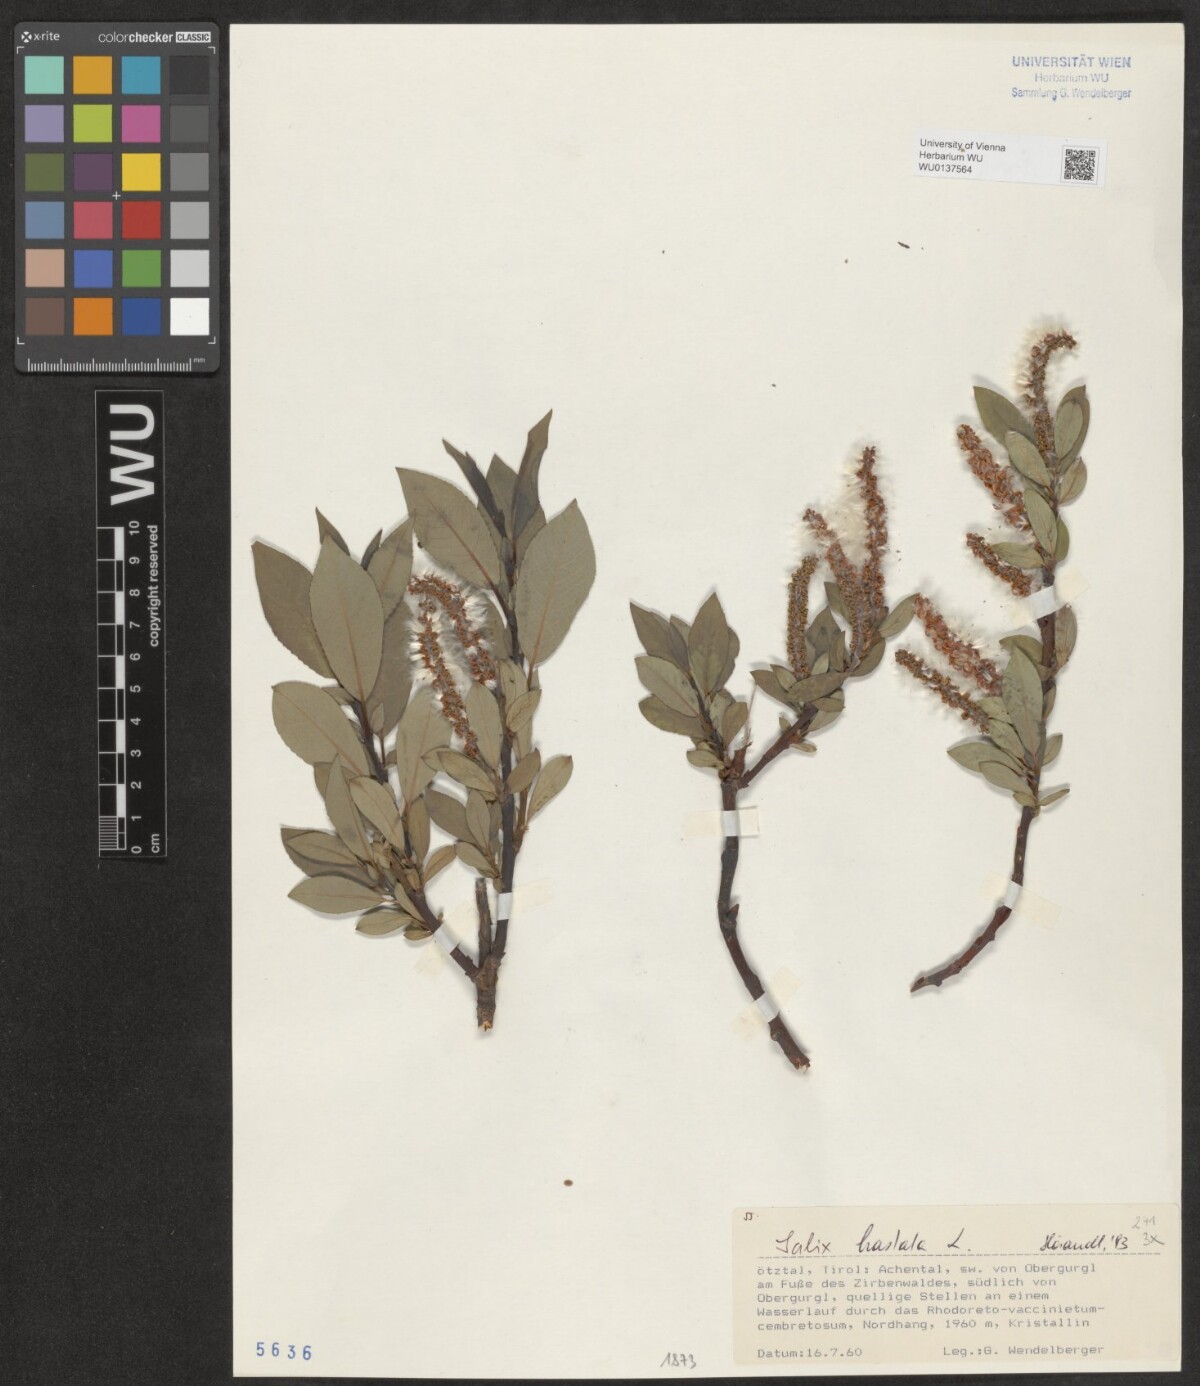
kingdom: Plantae
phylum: Tracheophyta
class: Magnoliopsida
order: Malpighiales
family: Salicaceae
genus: Salix
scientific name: Salix hastata
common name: Halberd willow
